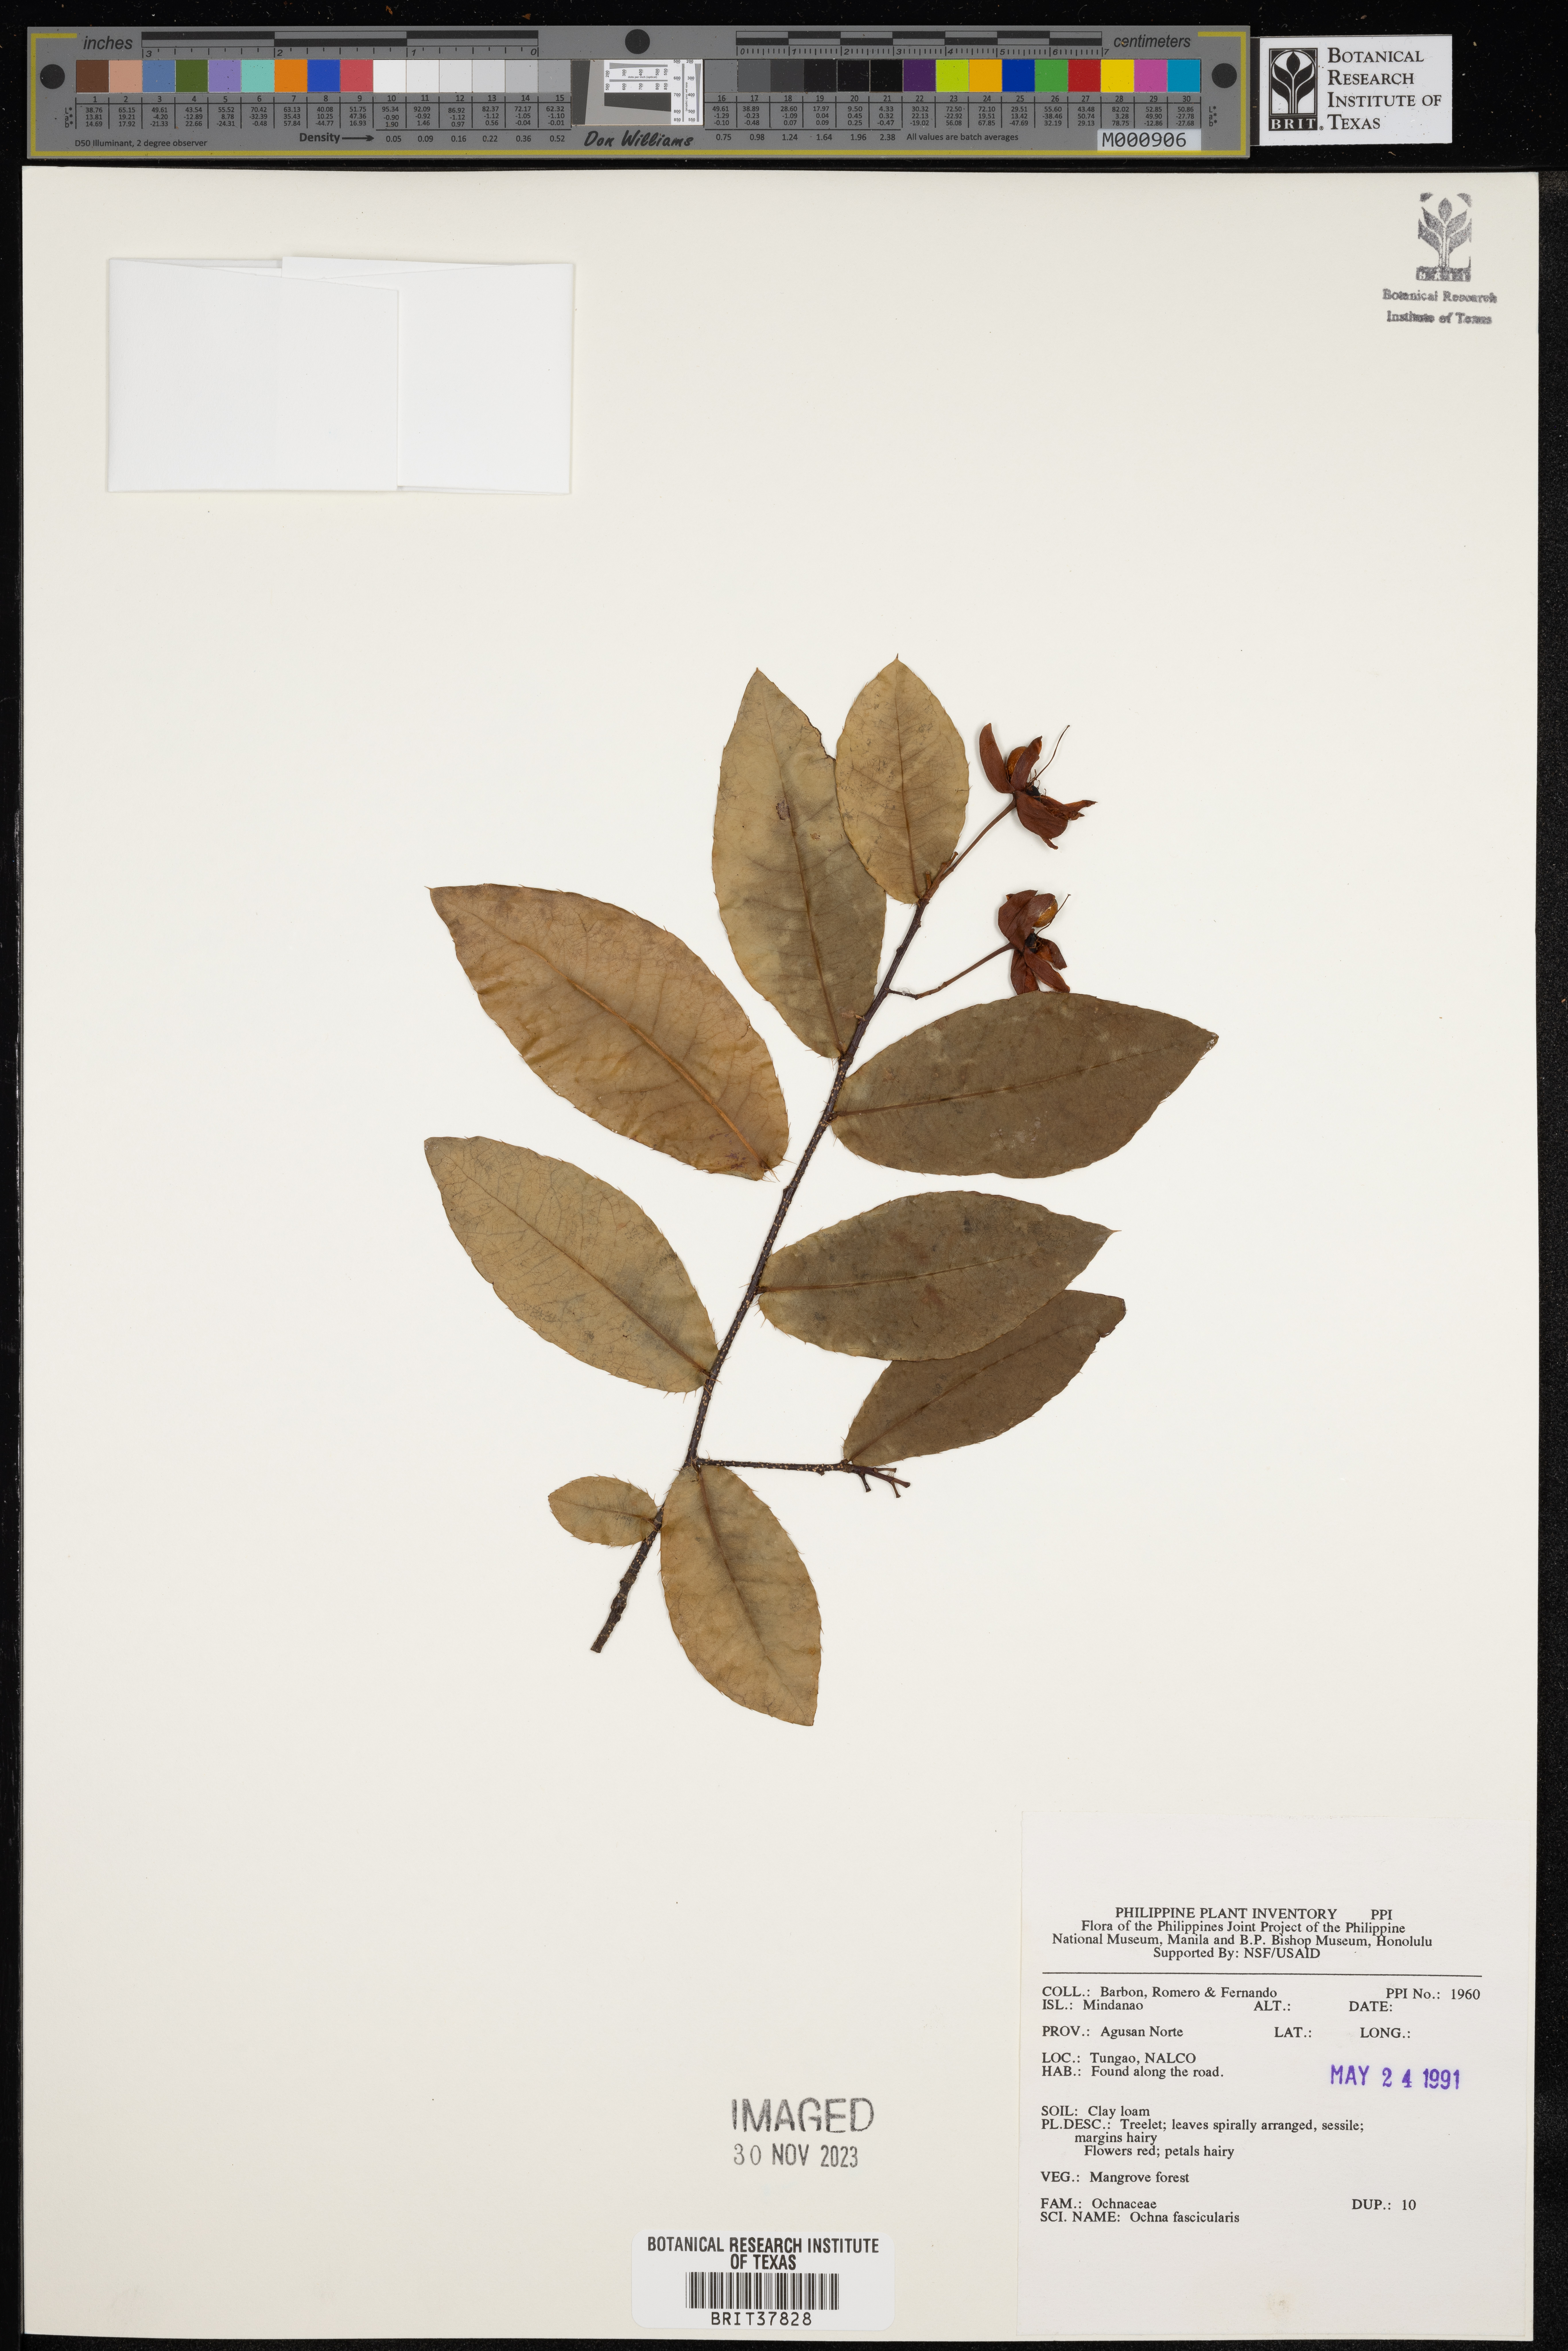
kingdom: Plantae
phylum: Tracheophyta
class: Magnoliopsida
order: Malpighiales
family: Ochnaceae
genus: Brackenridgea
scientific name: Brackenridgea fascicularis
